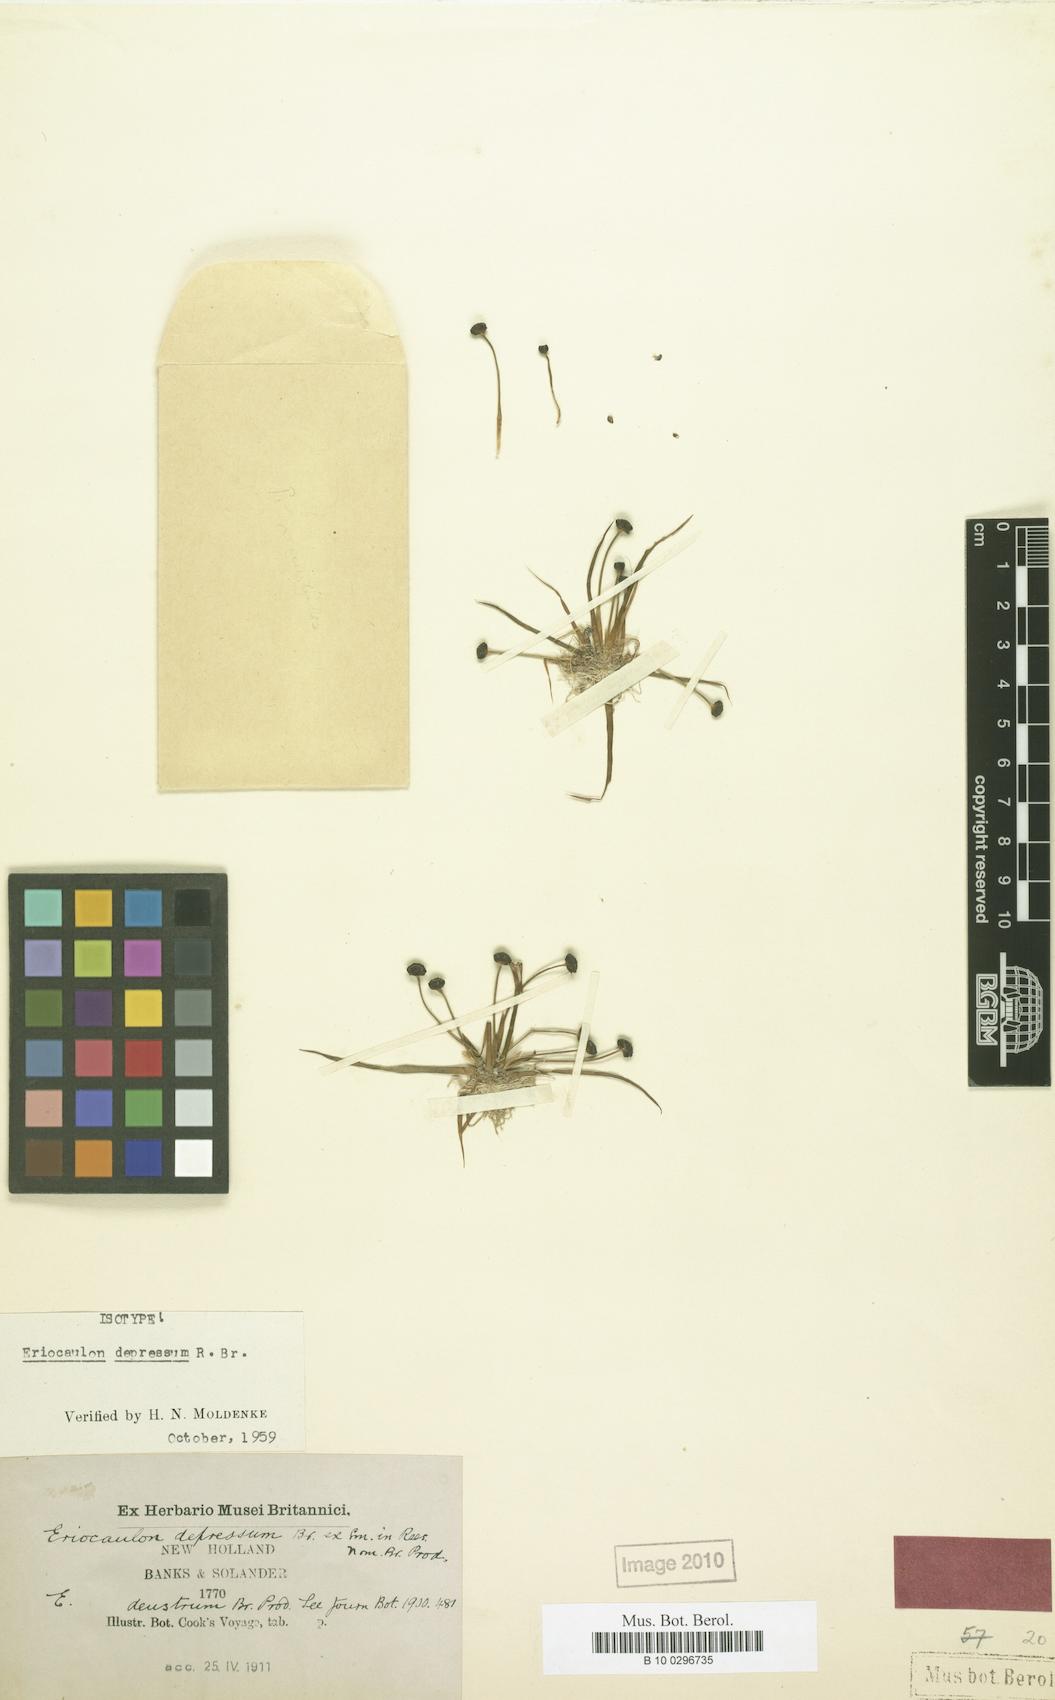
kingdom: Plantae
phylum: Tracheophyta
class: Liliopsida
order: Poales
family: Eriocaulaceae
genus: Eriocaulon
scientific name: Eriocaulon depressum
